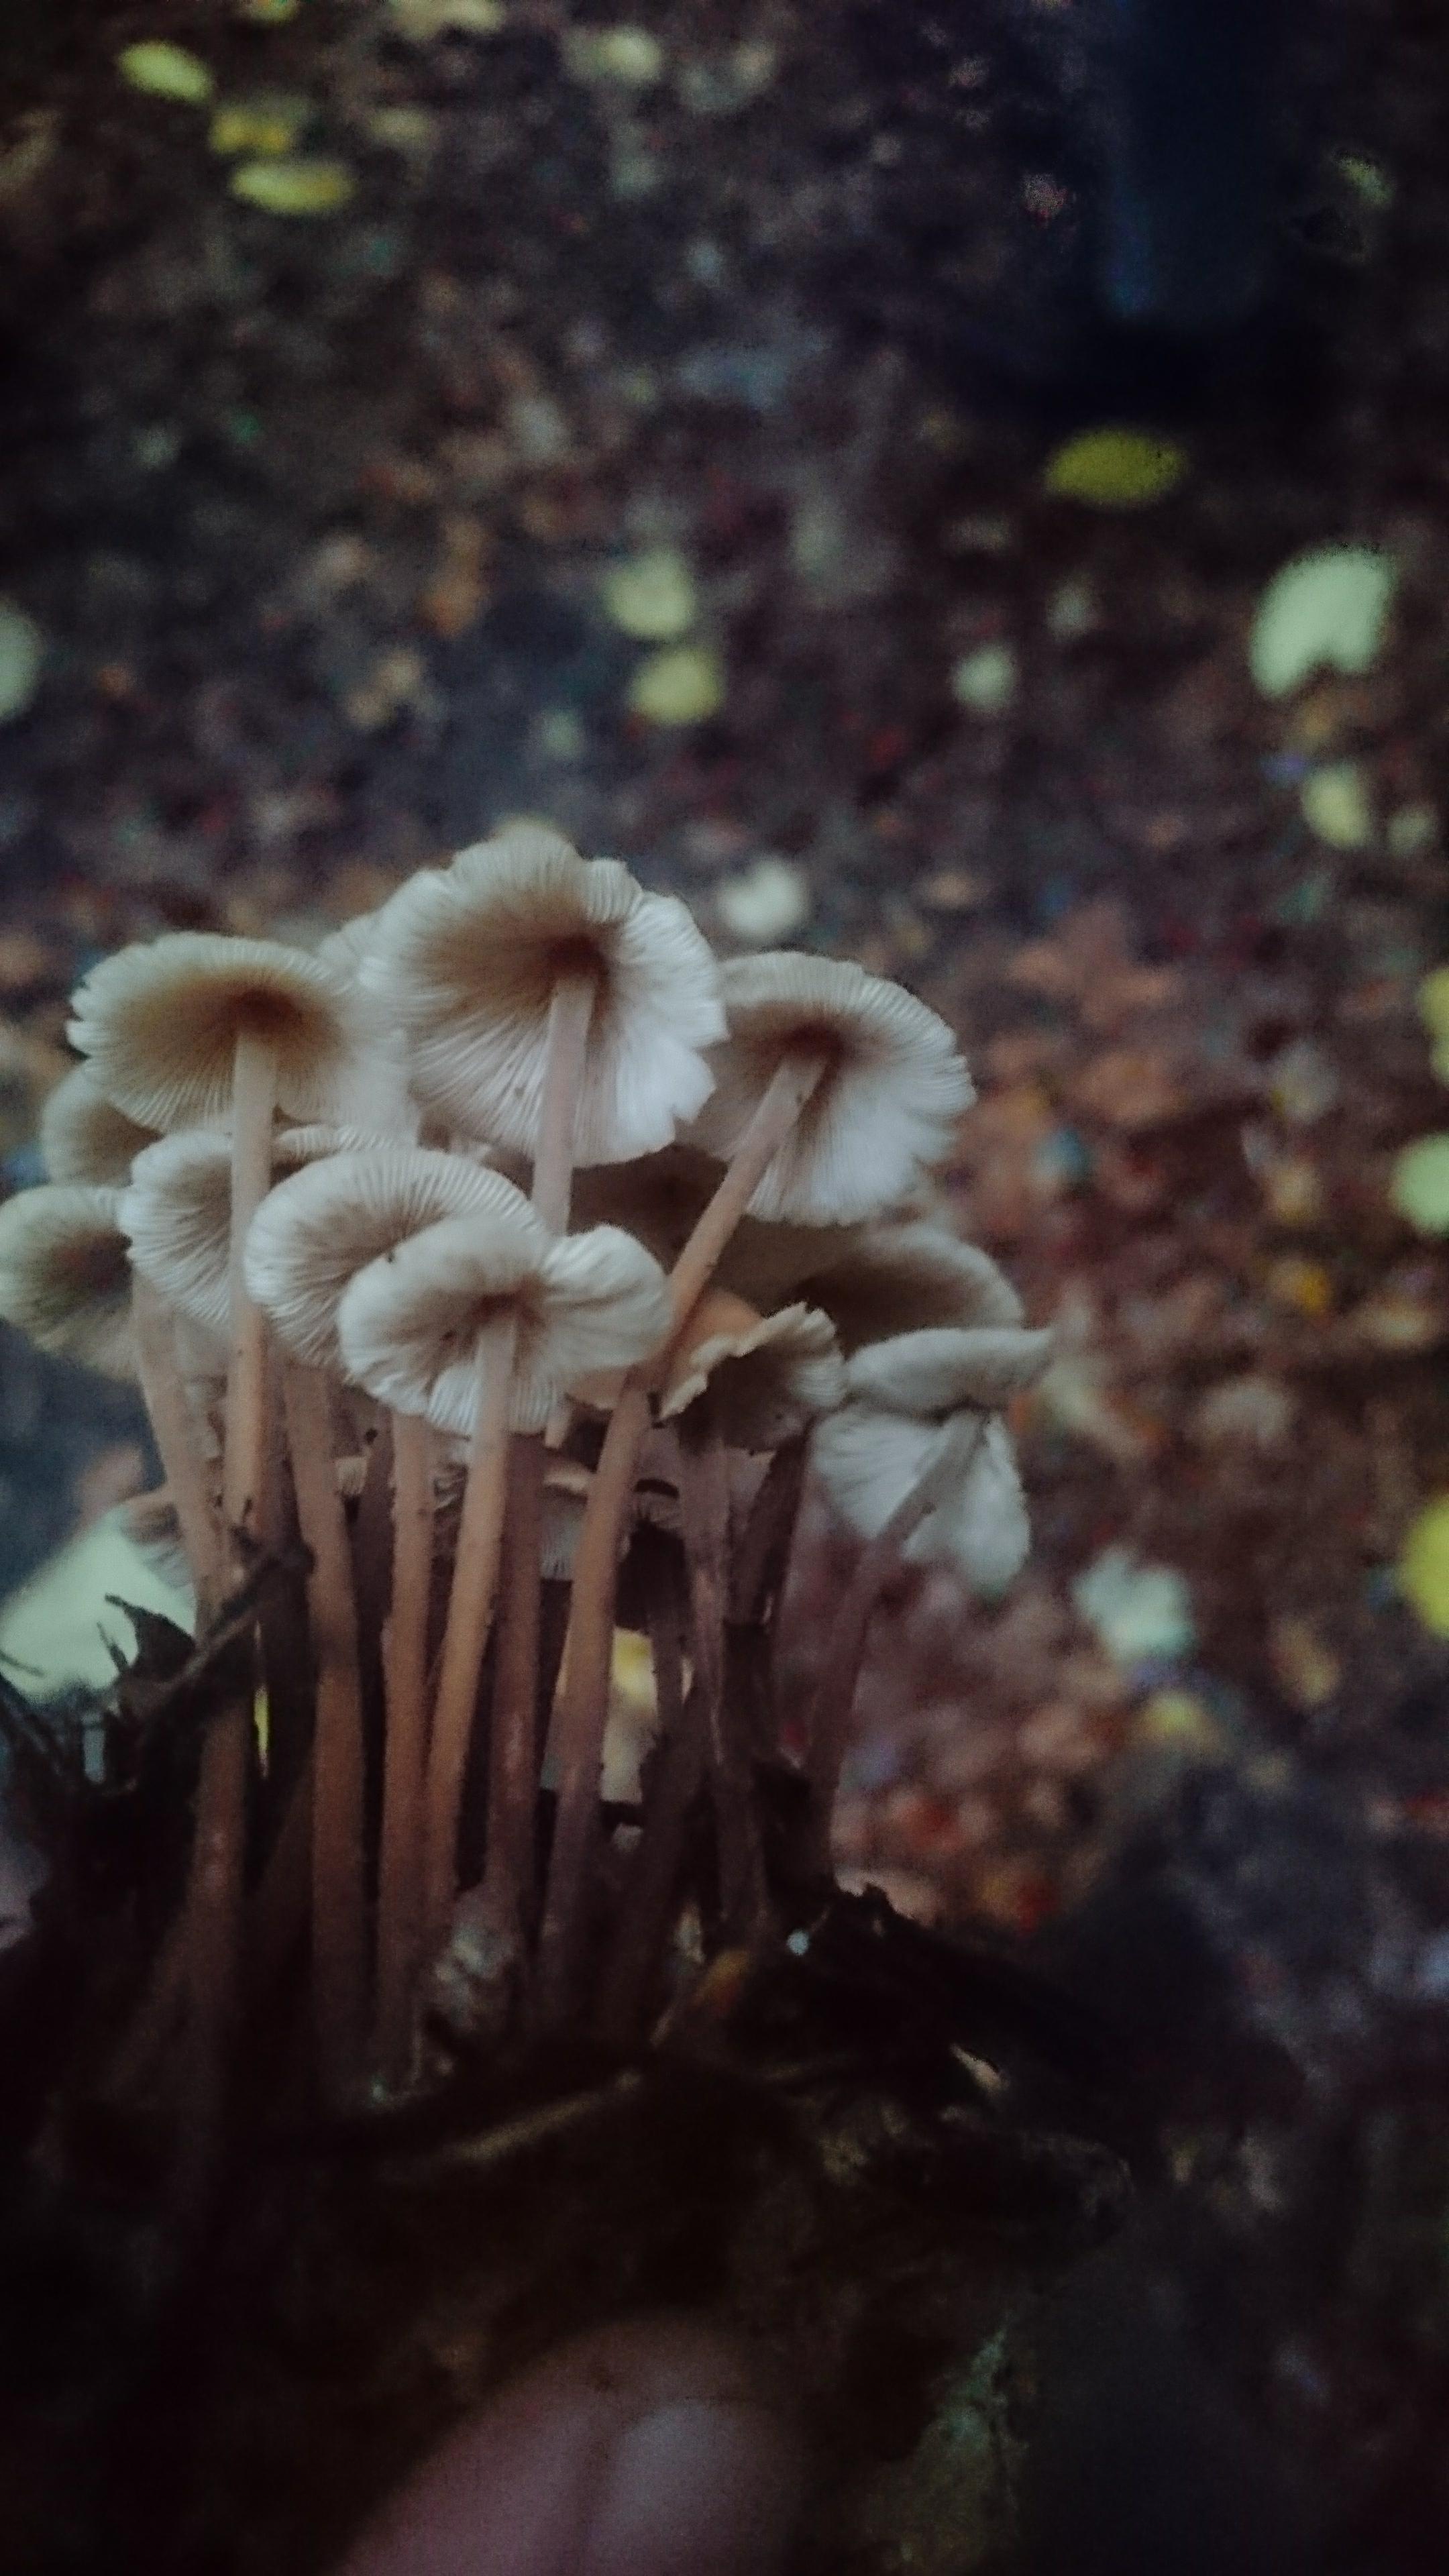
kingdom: Fungi
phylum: Basidiomycota
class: Agaricomycetes
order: Agaricales
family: Omphalotaceae
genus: Collybiopsis
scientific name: Collybiopsis confluens
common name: knippe-fladhat
